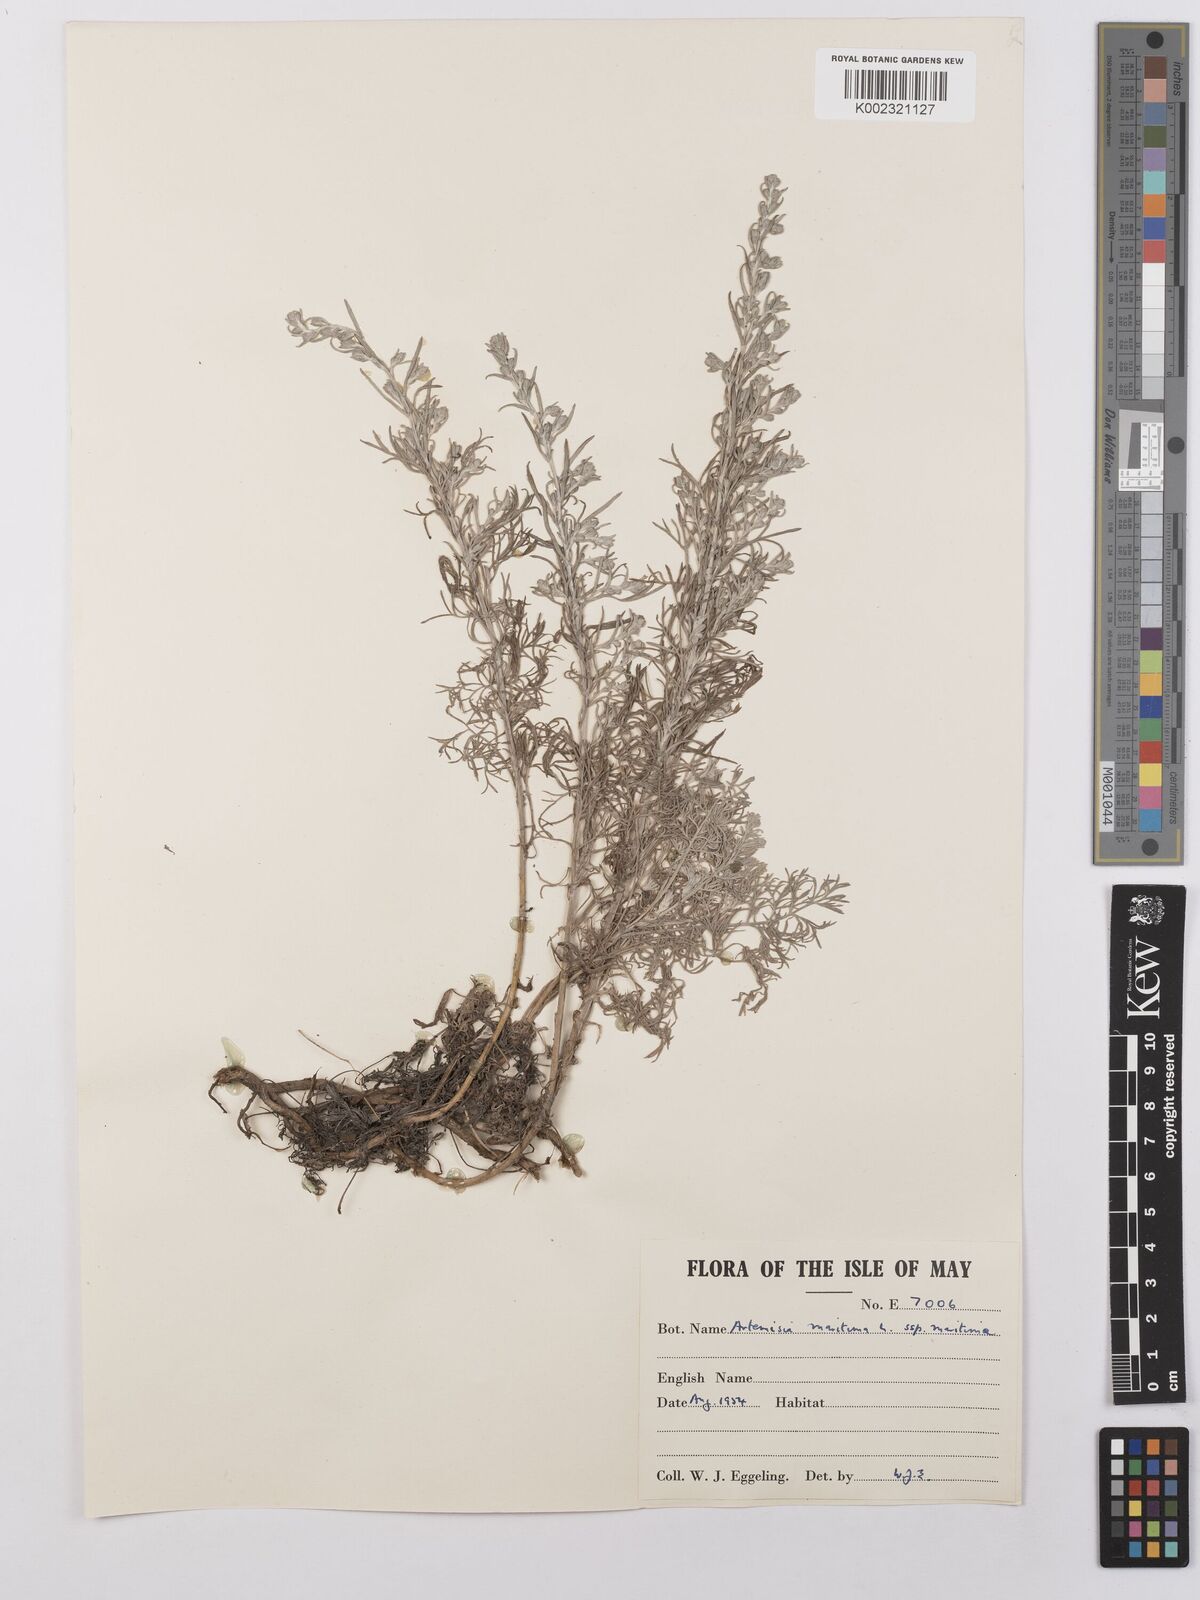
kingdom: Plantae
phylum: Tracheophyta
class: Magnoliopsida
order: Asterales
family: Asteraceae
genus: Artemisia
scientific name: Artemisia maritima
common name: Wormseed
